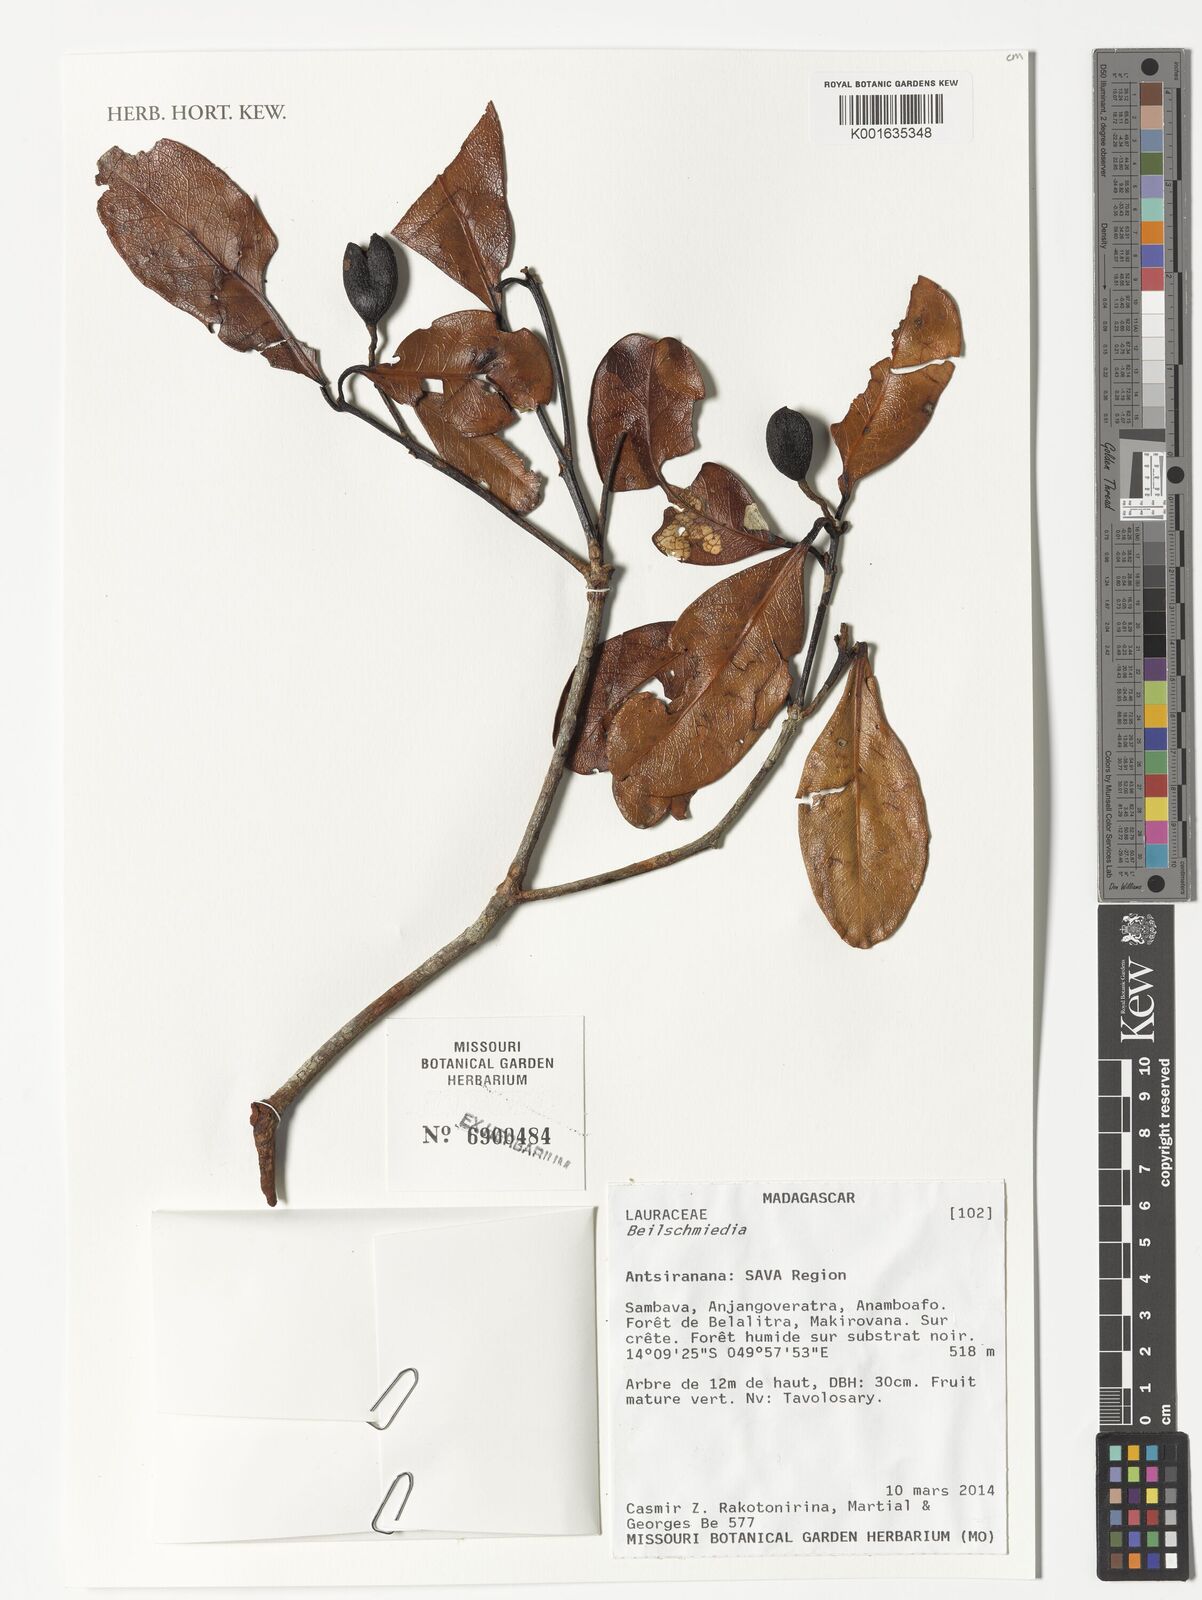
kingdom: Plantae
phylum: Tracheophyta
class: Magnoliopsida
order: Laurales
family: Lauraceae
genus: Beilschmiedia
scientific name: Beilschmiedia
